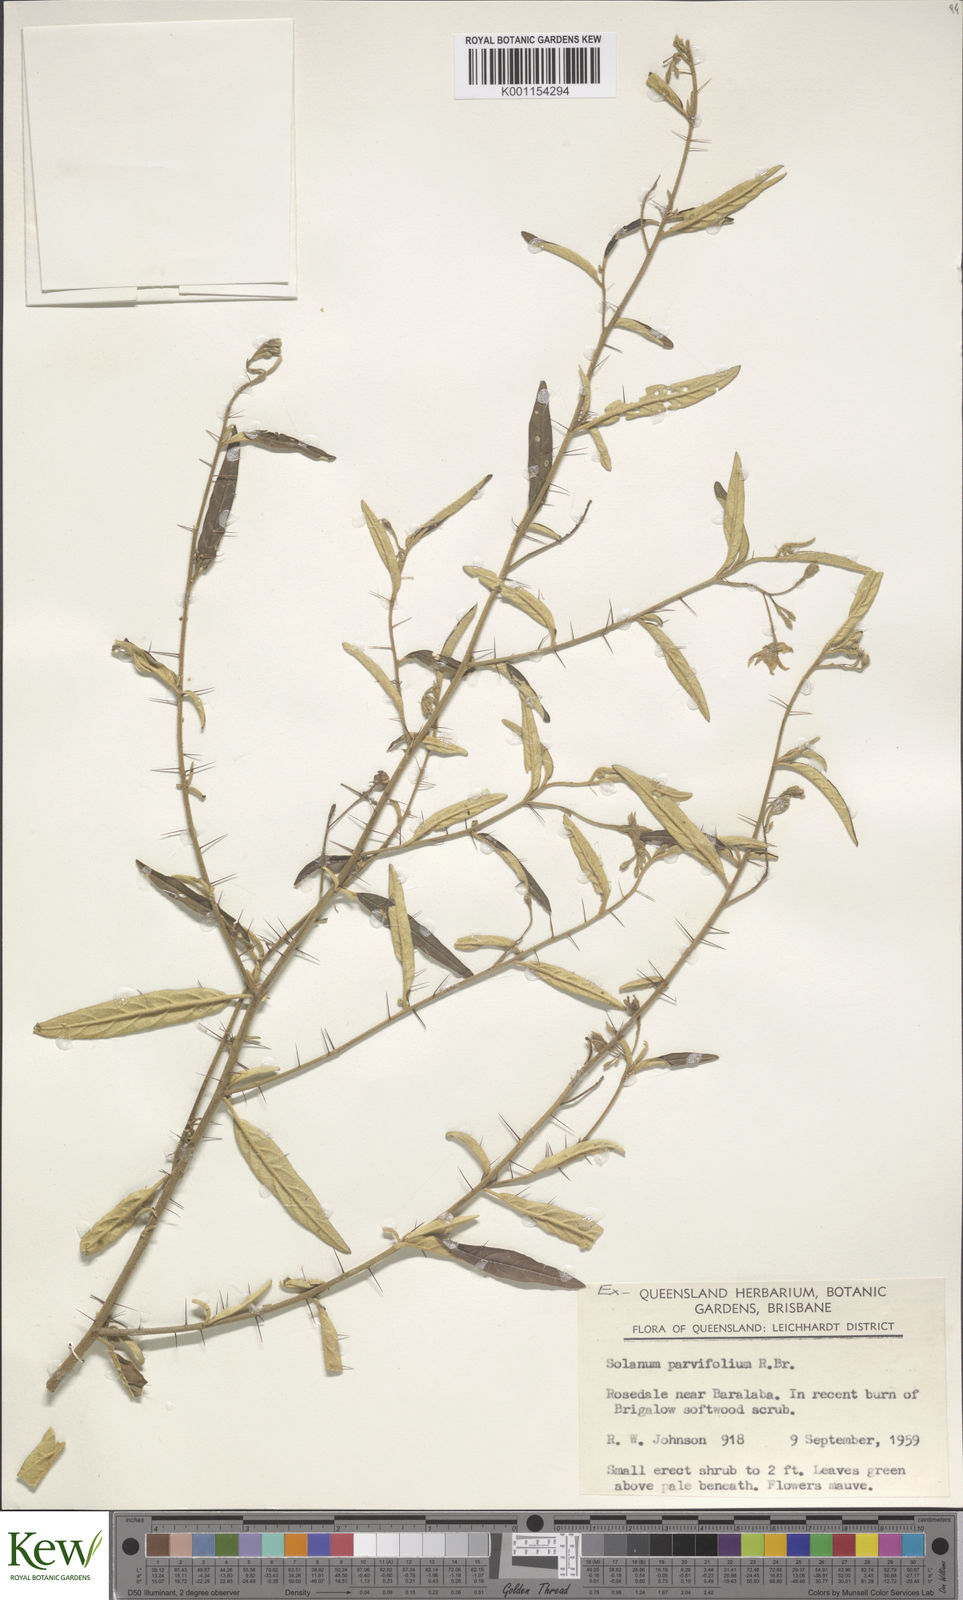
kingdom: Plantae
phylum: Tracheophyta
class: Magnoliopsida
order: Solanales
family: Solanaceae
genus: Solanum
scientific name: Solanum parvifolium
